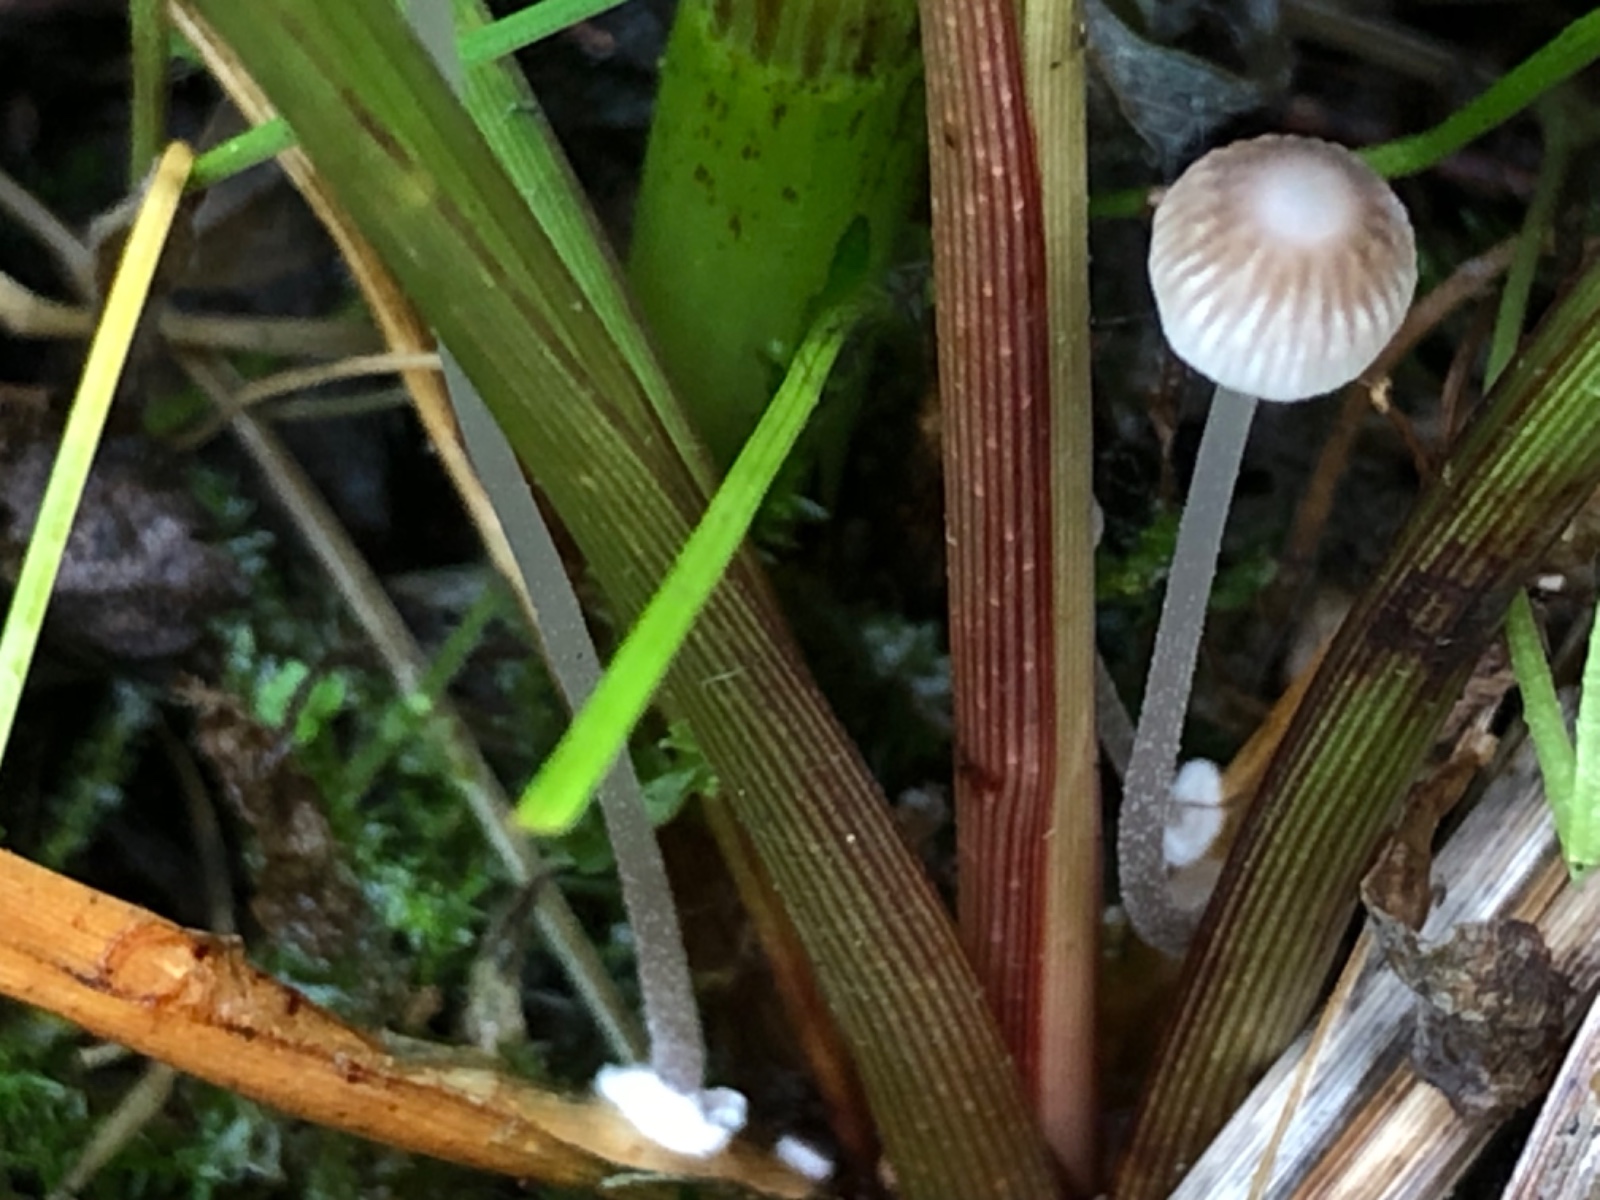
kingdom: Fungi
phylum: Basidiomycota
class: Agaricomycetes
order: Agaricales
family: Mycenaceae
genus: Mycena
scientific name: Mycena bulbosa
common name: siv-huesvamp
